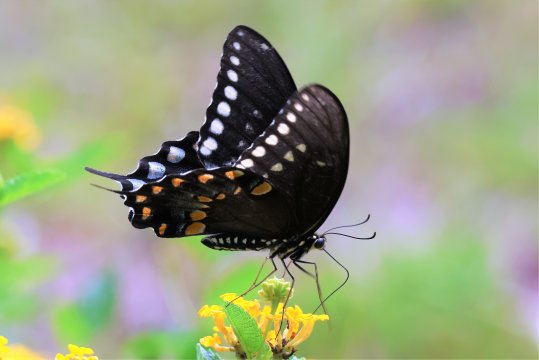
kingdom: Animalia
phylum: Arthropoda
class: Insecta
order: Lepidoptera
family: Papilionidae
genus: Pterourus
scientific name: Pterourus troilus
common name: Spicebush Swallowtail
